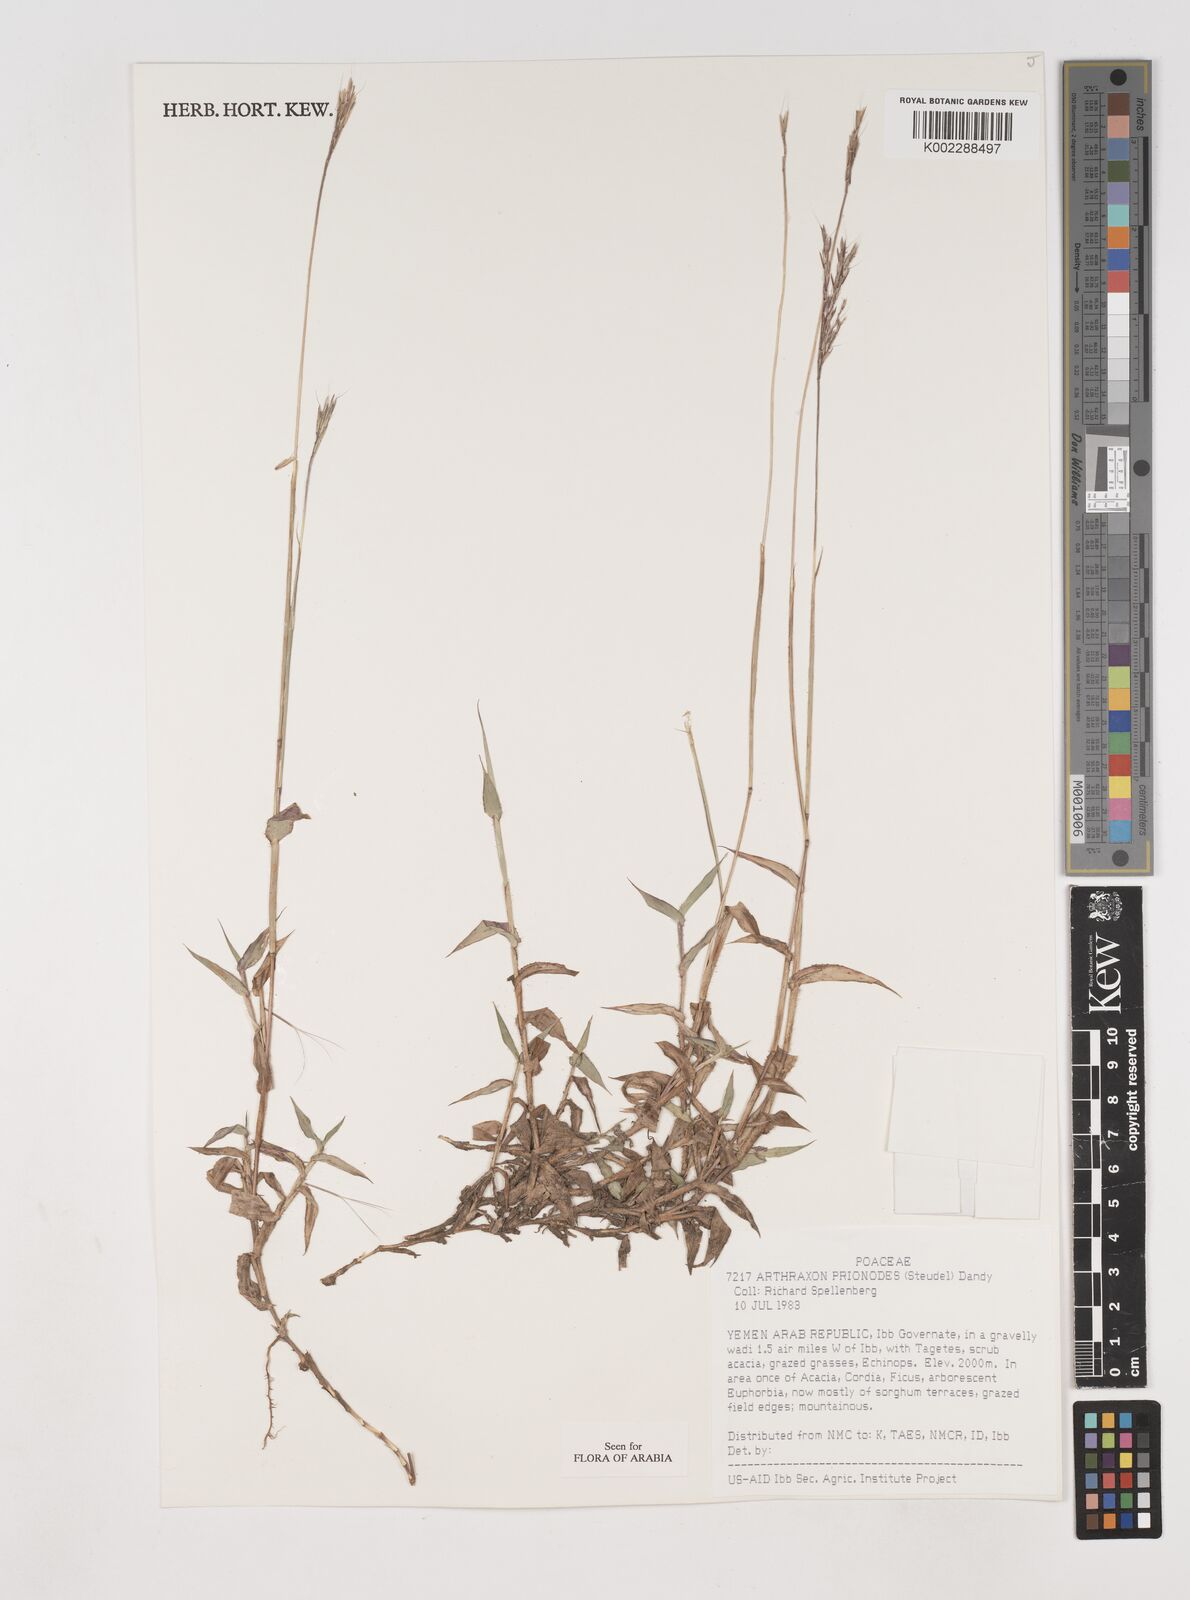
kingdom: Plantae
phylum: Tracheophyta
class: Liliopsida
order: Poales
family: Poaceae
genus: Arthraxon
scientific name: Arthraxon prionodes
